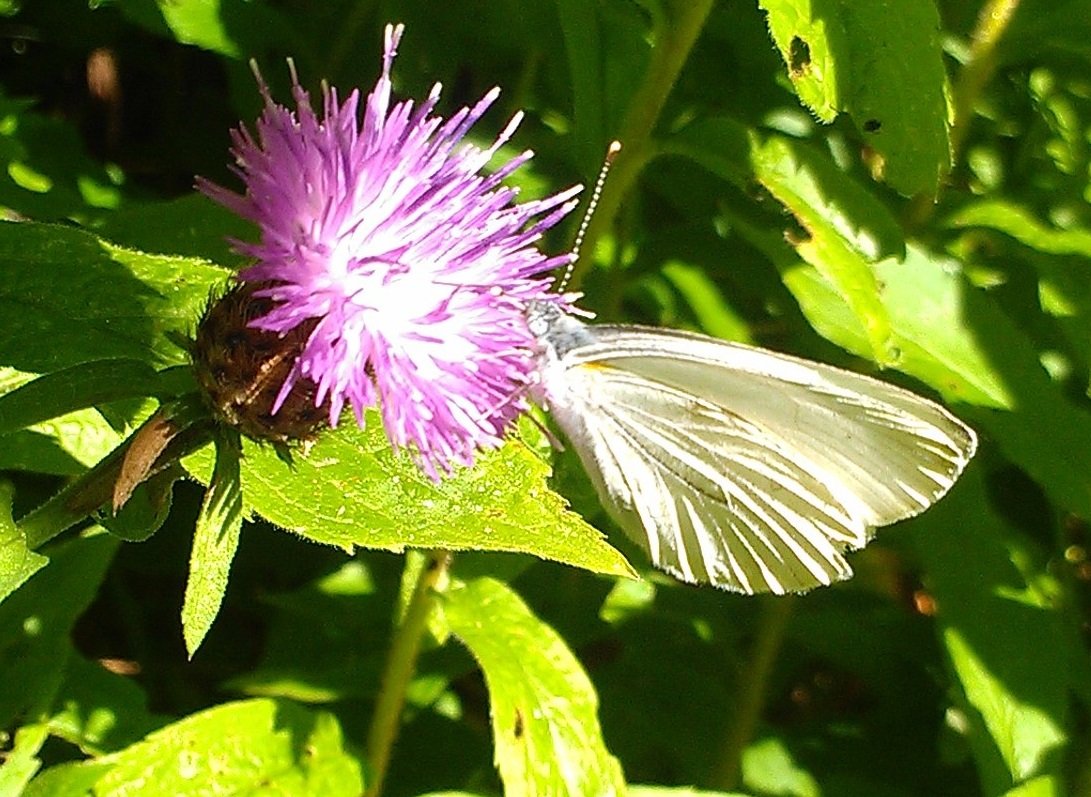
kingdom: Animalia
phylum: Arthropoda
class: Insecta
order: Lepidoptera
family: Pieridae
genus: Pieris
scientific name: Pieris oleracea
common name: Mustard White
